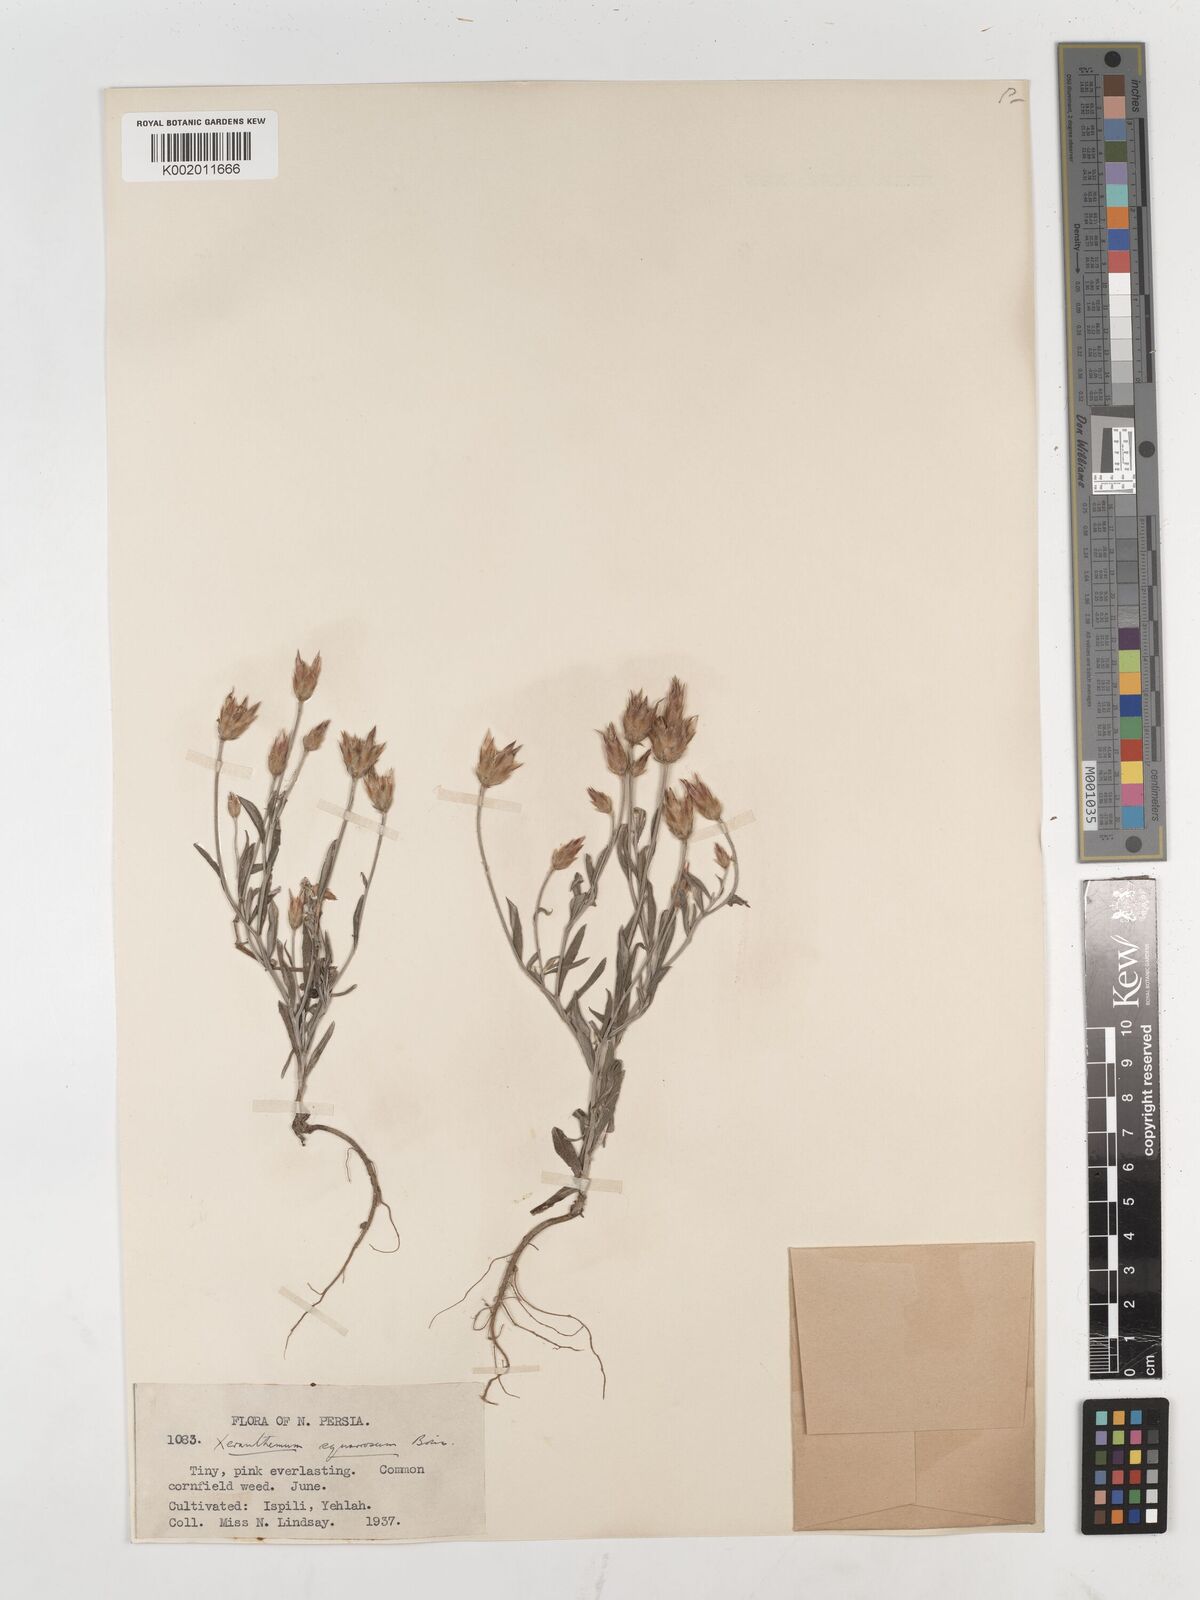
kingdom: Plantae
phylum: Tracheophyta
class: Magnoliopsida
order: Asterales
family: Asteraceae
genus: Xeranthemum
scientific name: Xeranthemum squarrosum
